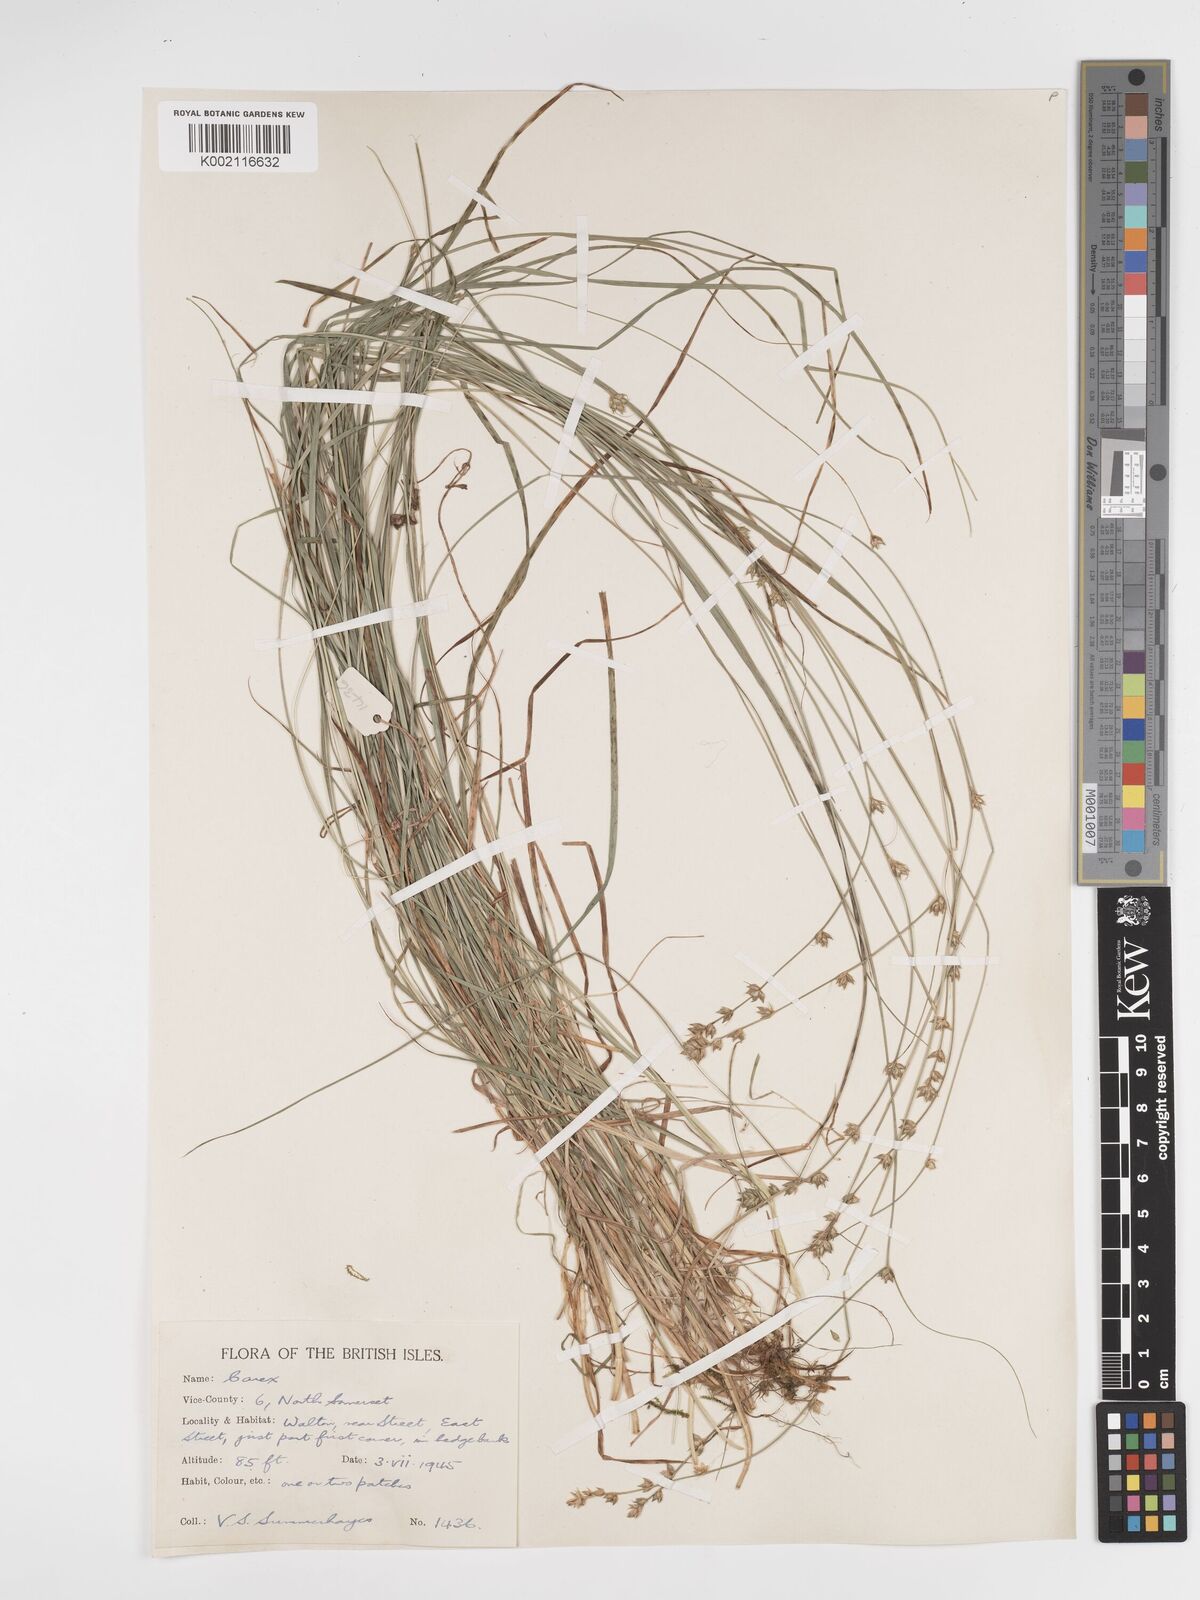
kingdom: Plantae
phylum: Tracheophyta
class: Liliopsida
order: Poales
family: Cyperaceae
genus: Carex
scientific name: Carex divulsa
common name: Grassland sedge
